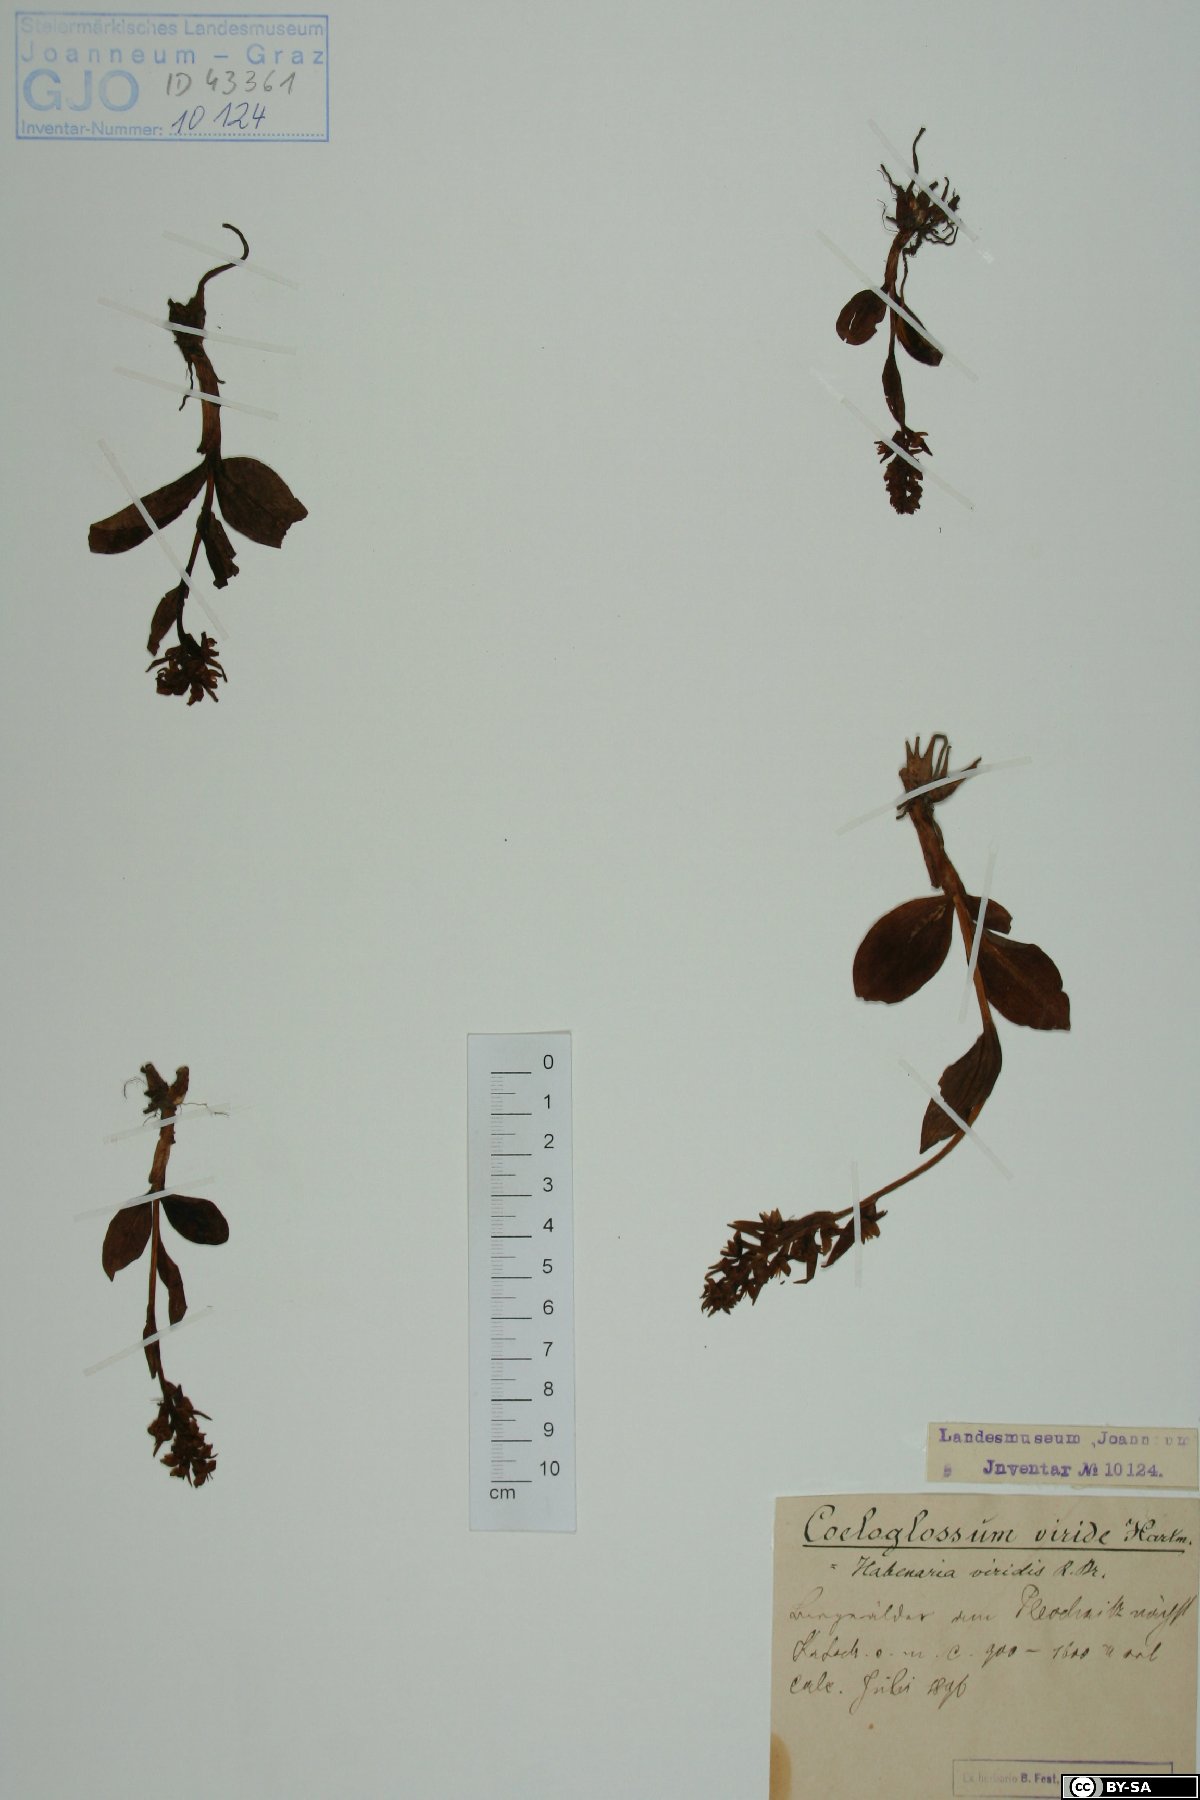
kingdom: Plantae
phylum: Tracheophyta
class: Liliopsida
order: Asparagales
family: Orchidaceae
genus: Dactylorhiza
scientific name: Dactylorhiza viridis
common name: Longbract frog orchid
